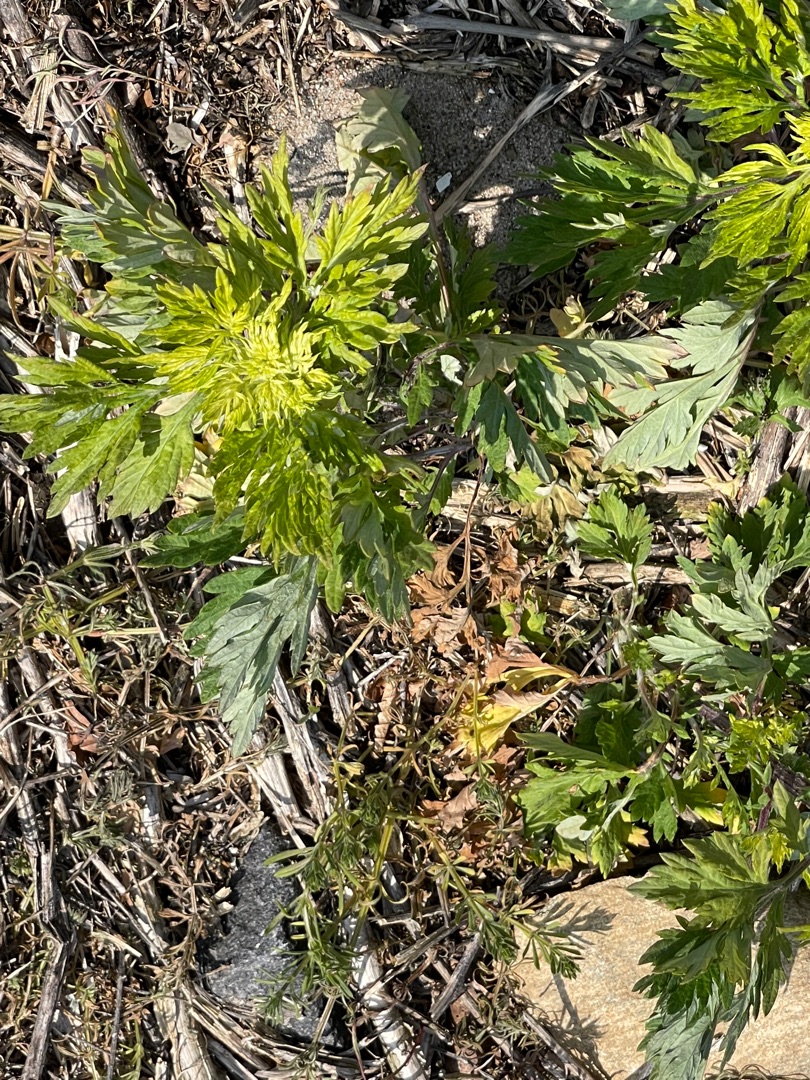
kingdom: Plantae
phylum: Tracheophyta
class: Magnoliopsida
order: Asterales
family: Asteraceae
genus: Artemisia
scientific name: Artemisia vulgaris
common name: Grå-bynke
